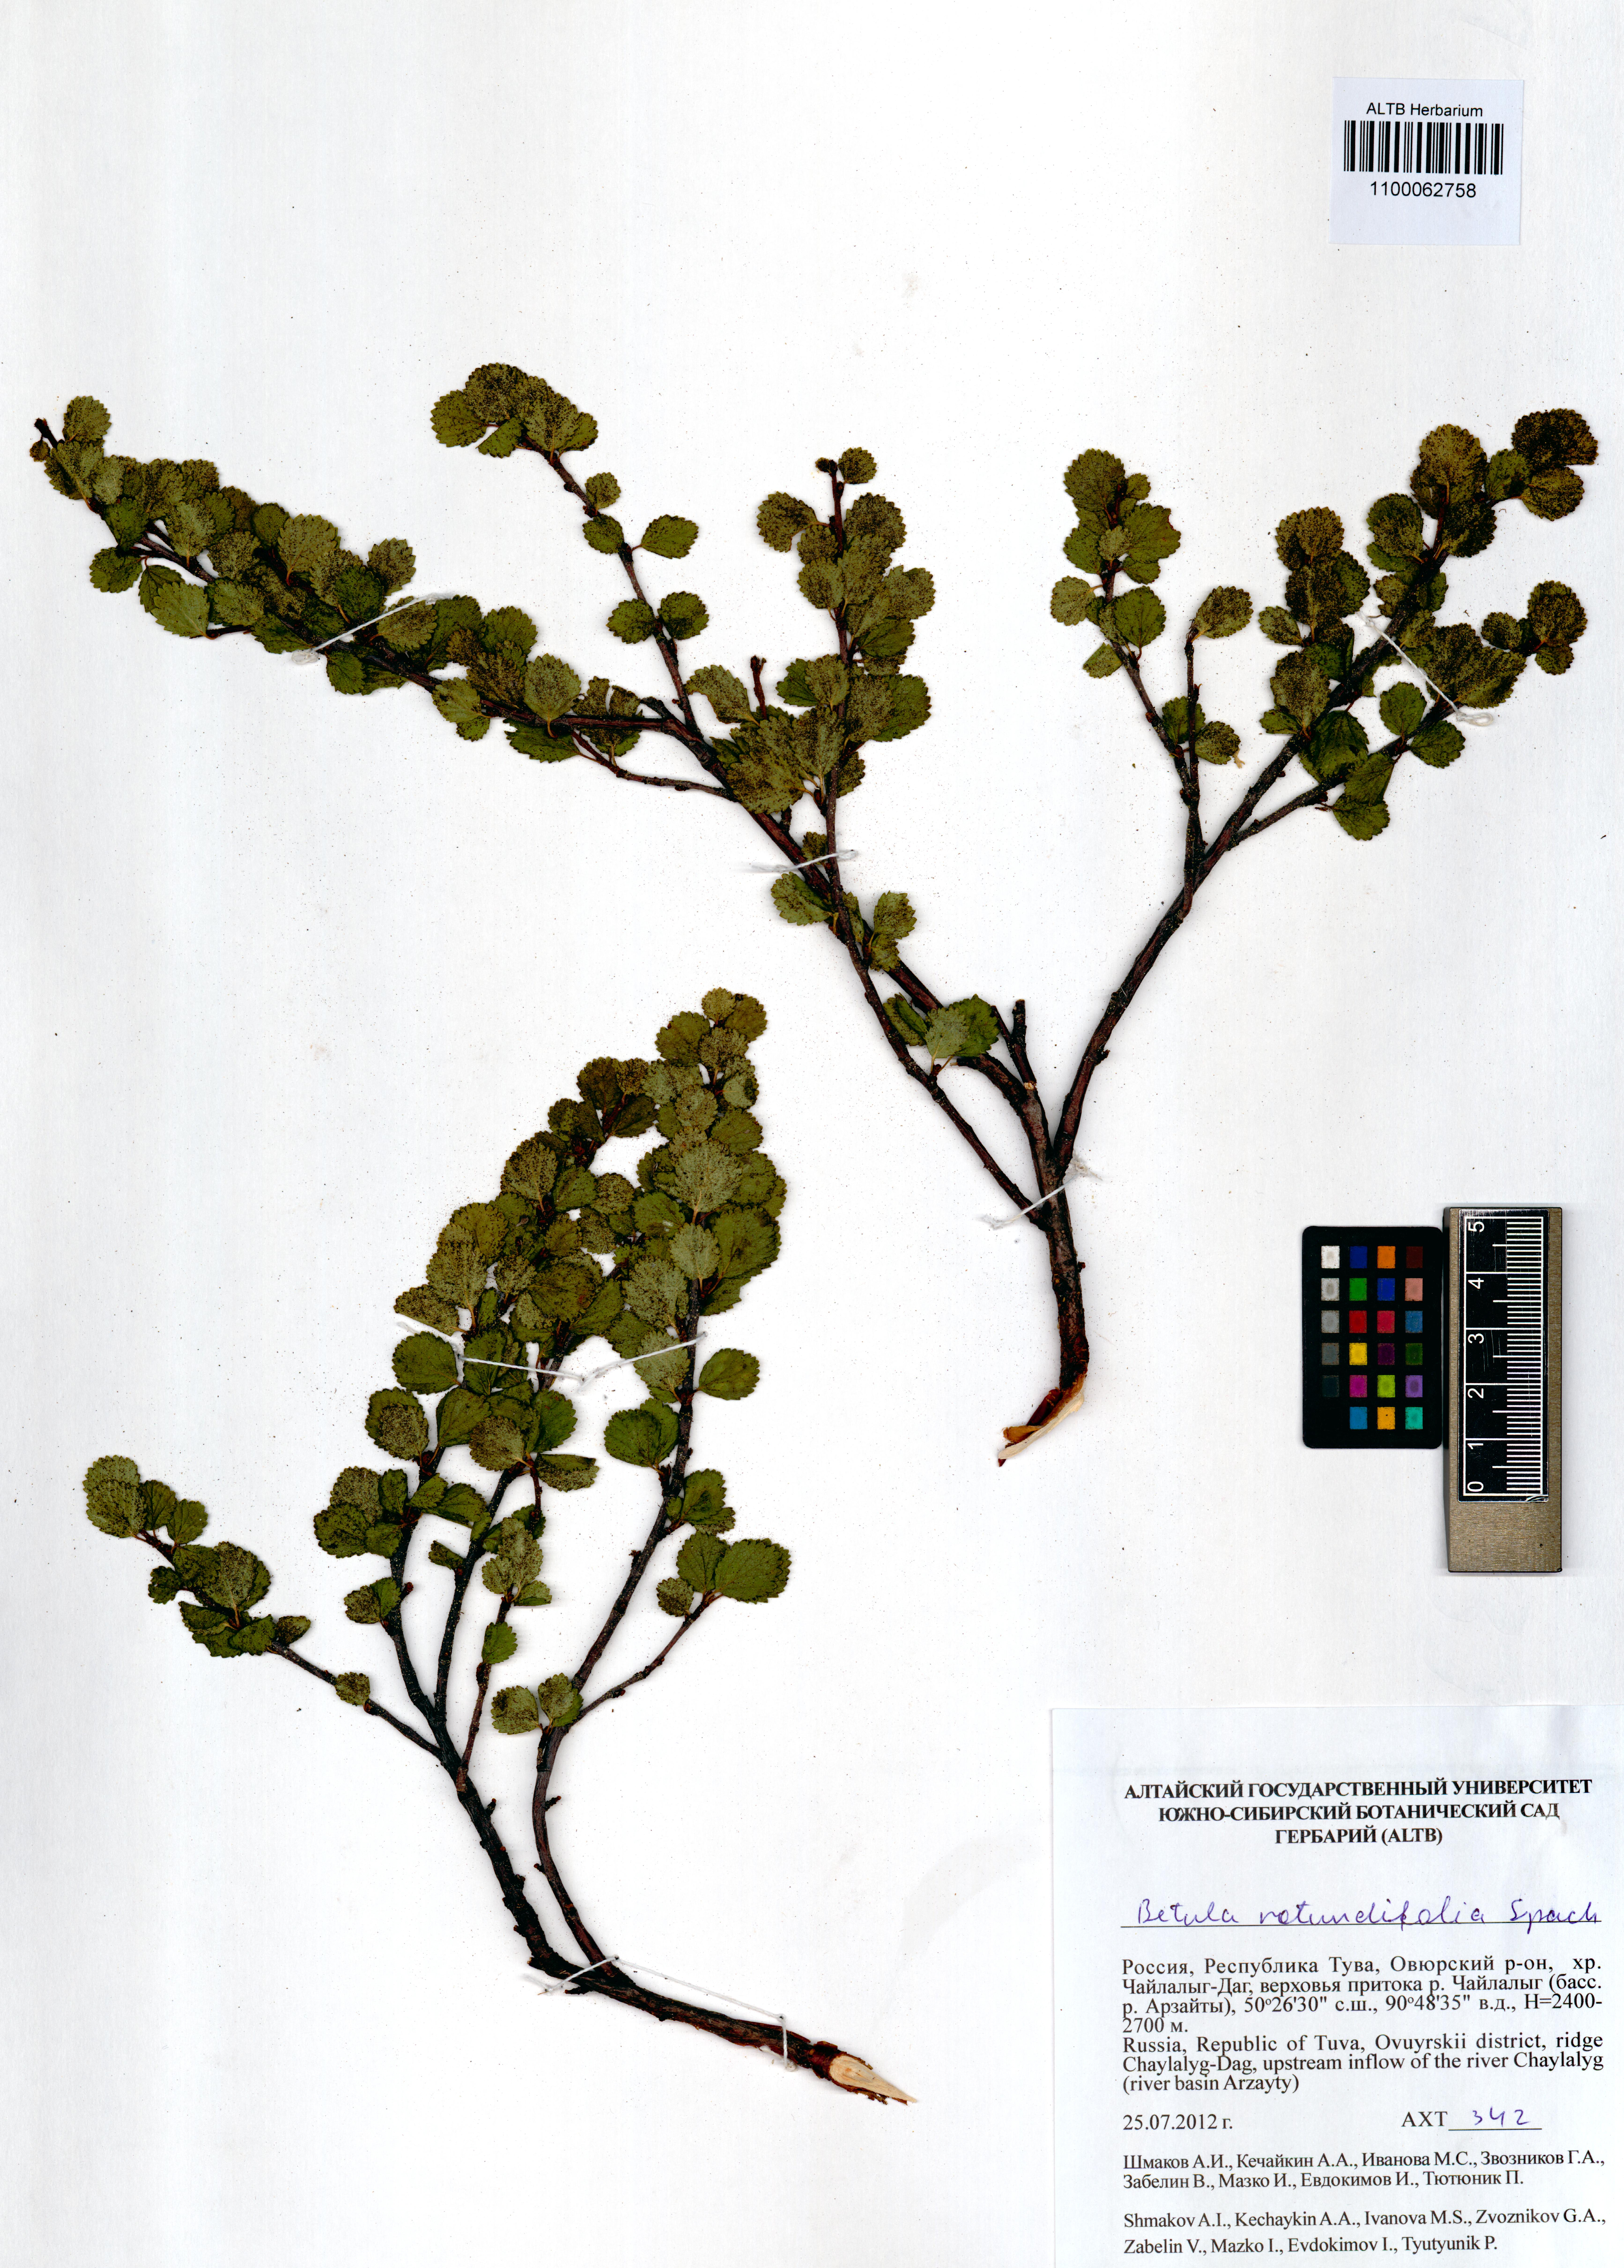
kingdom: Plantae
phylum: Tracheophyta
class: Magnoliopsida
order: Fagales
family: Betulaceae
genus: Betula
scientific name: Betula glandulosa
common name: Dwarf birch
